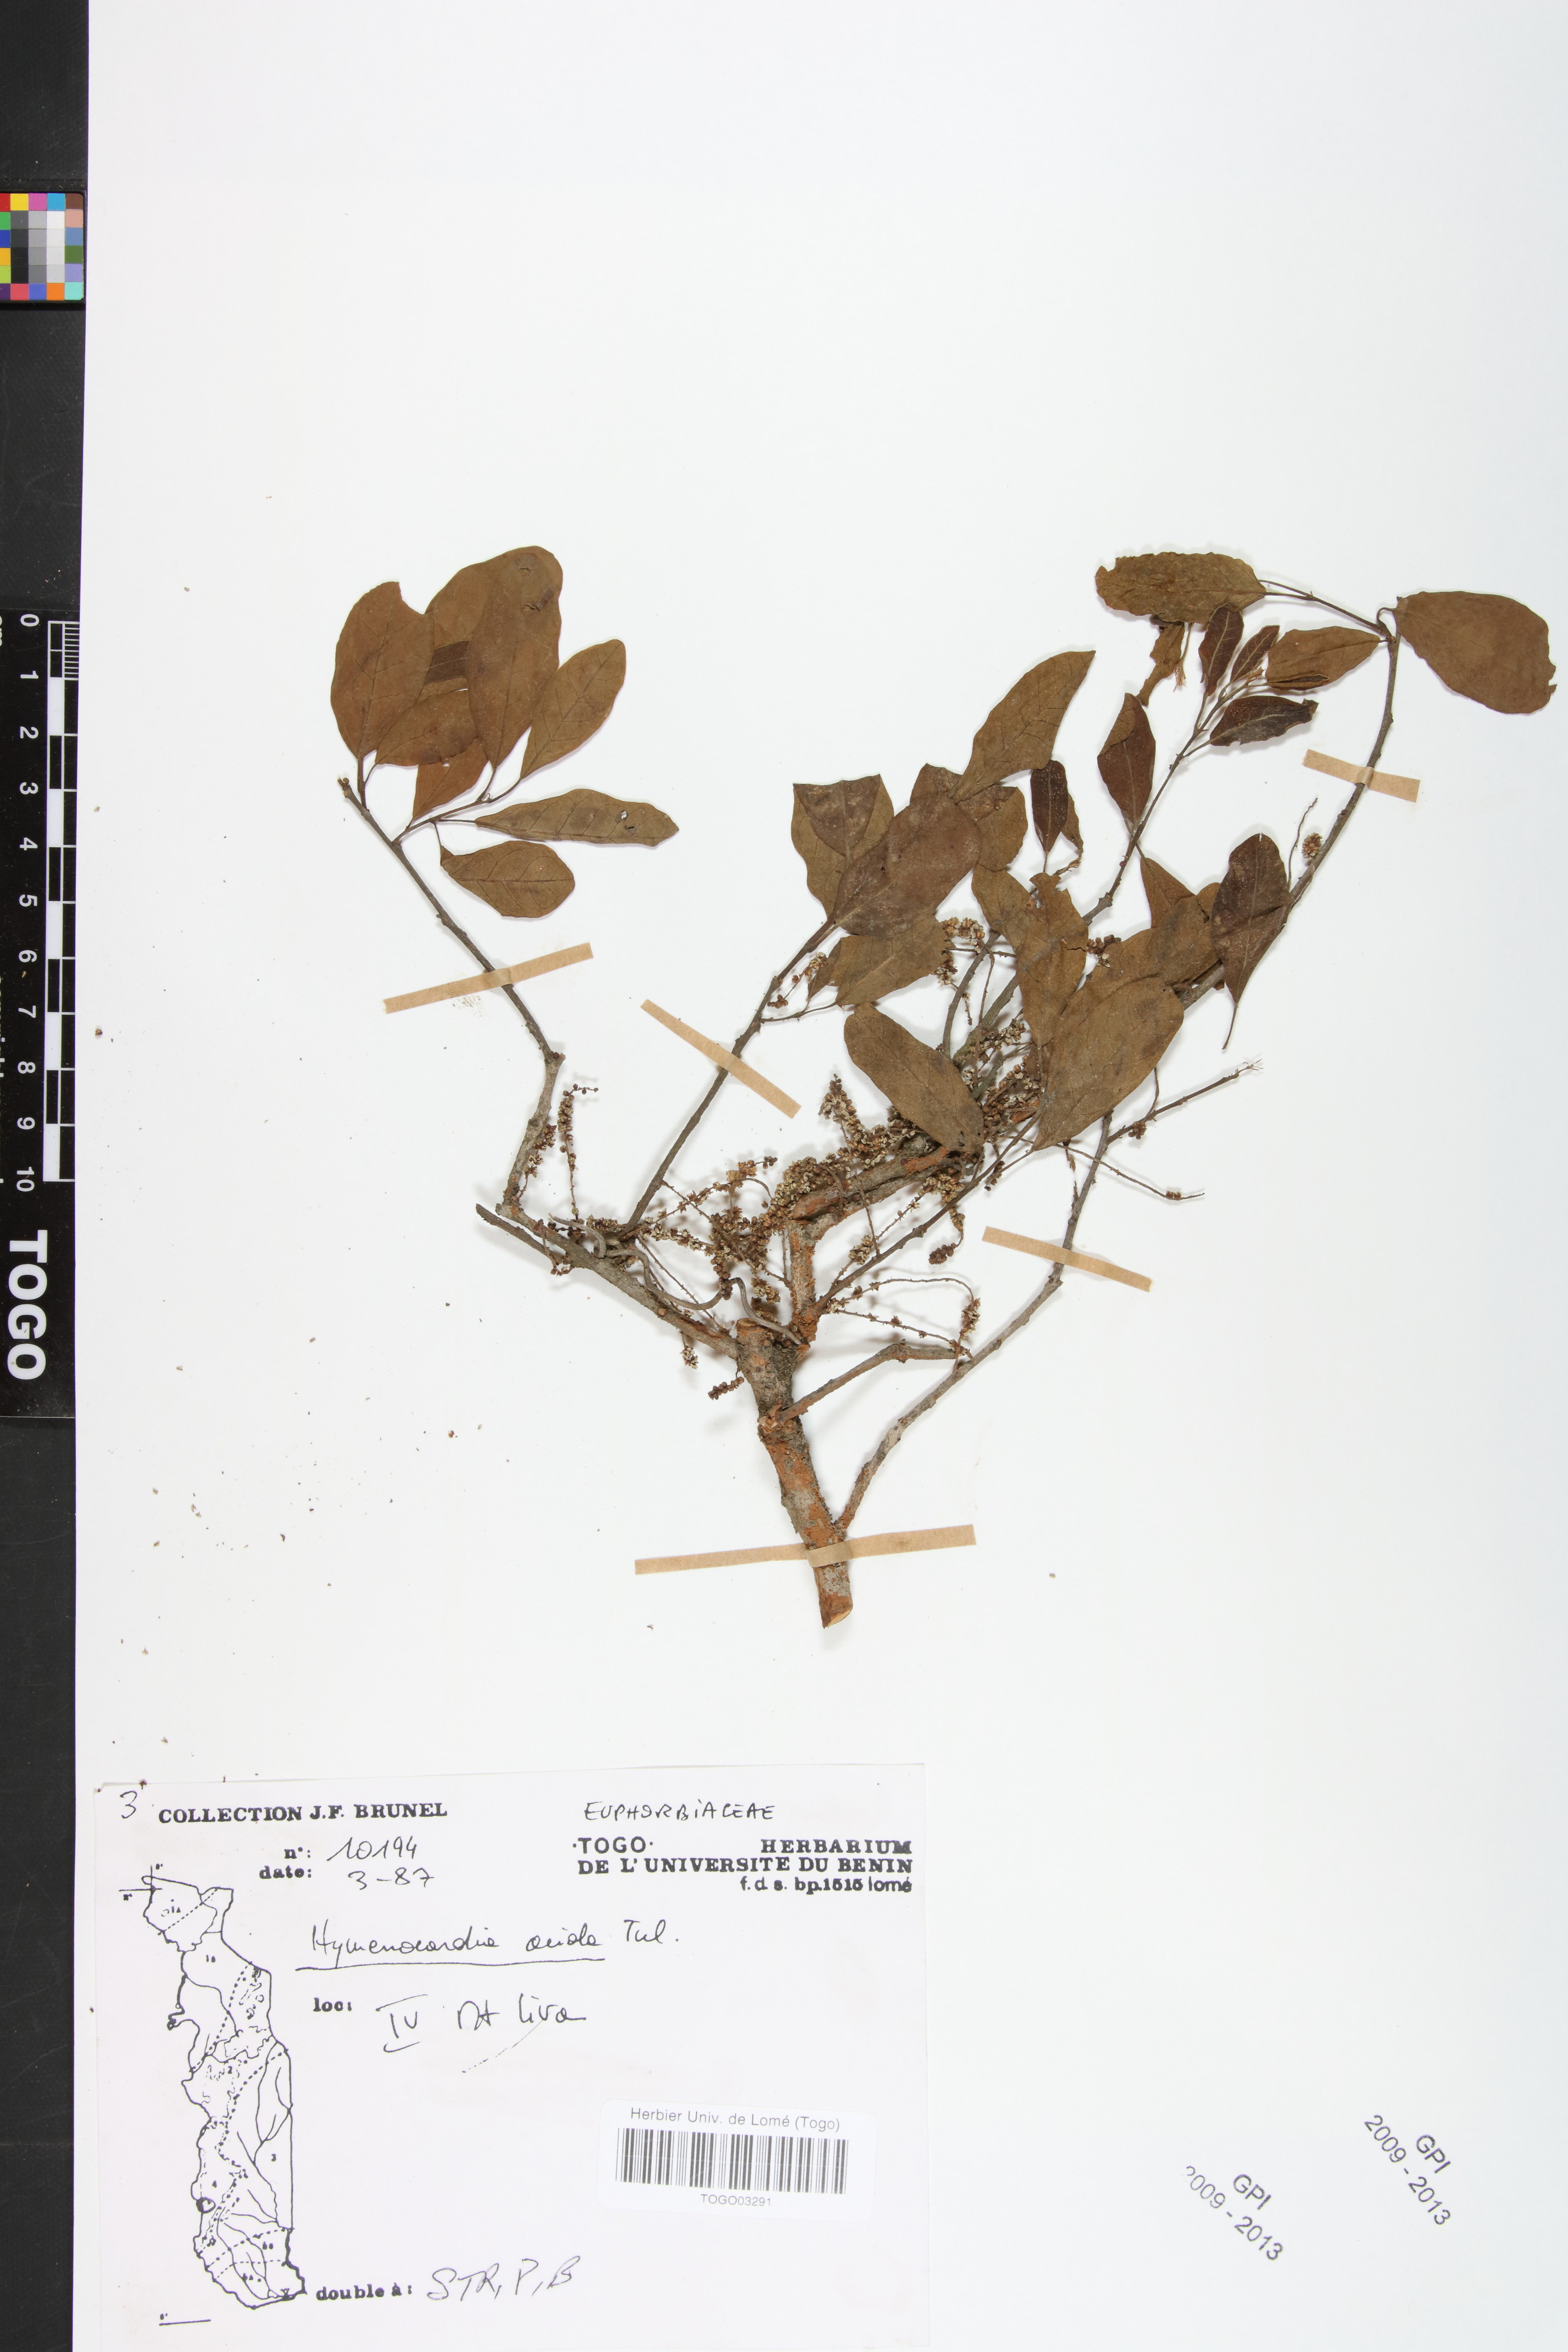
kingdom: Plantae
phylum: Tracheophyta
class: Magnoliopsida
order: Malpighiales
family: Phyllanthaceae
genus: Hymenocardia
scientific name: Hymenocardia acida
